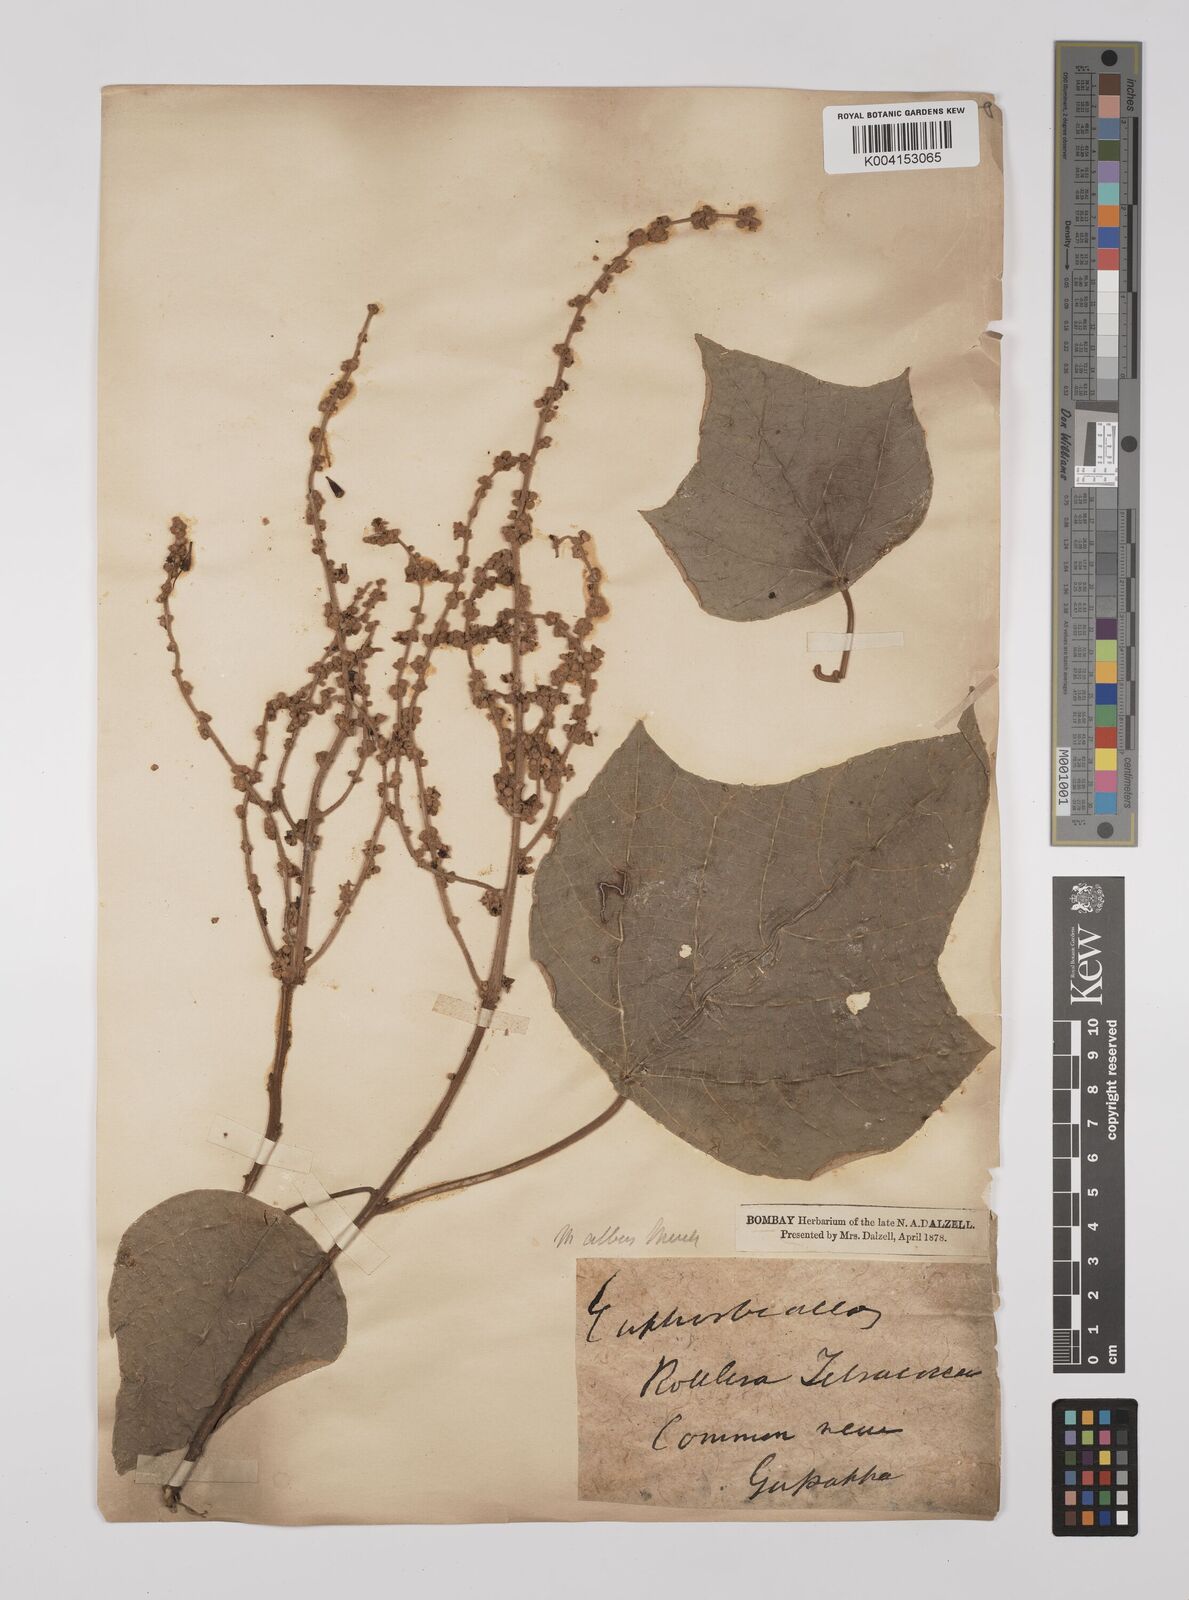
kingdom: Plantae
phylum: Tracheophyta
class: Magnoliopsida
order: Malpighiales
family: Euphorbiaceae
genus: Mallotus
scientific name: Mallotus tetracoccus
